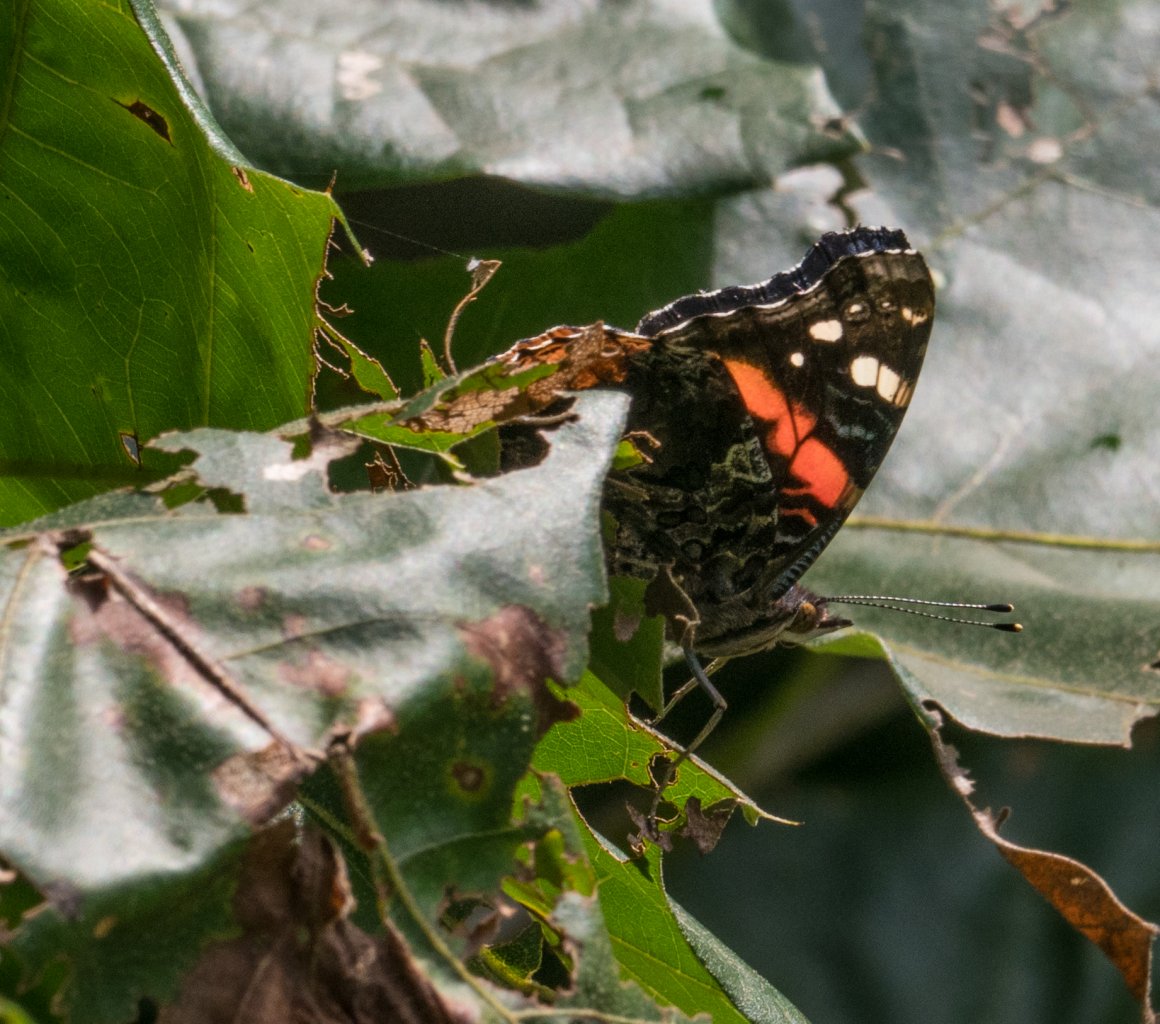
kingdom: Animalia
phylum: Arthropoda
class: Insecta
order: Lepidoptera
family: Nymphalidae
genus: Vanessa
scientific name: Vanessa atalanta
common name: Red Admiral
